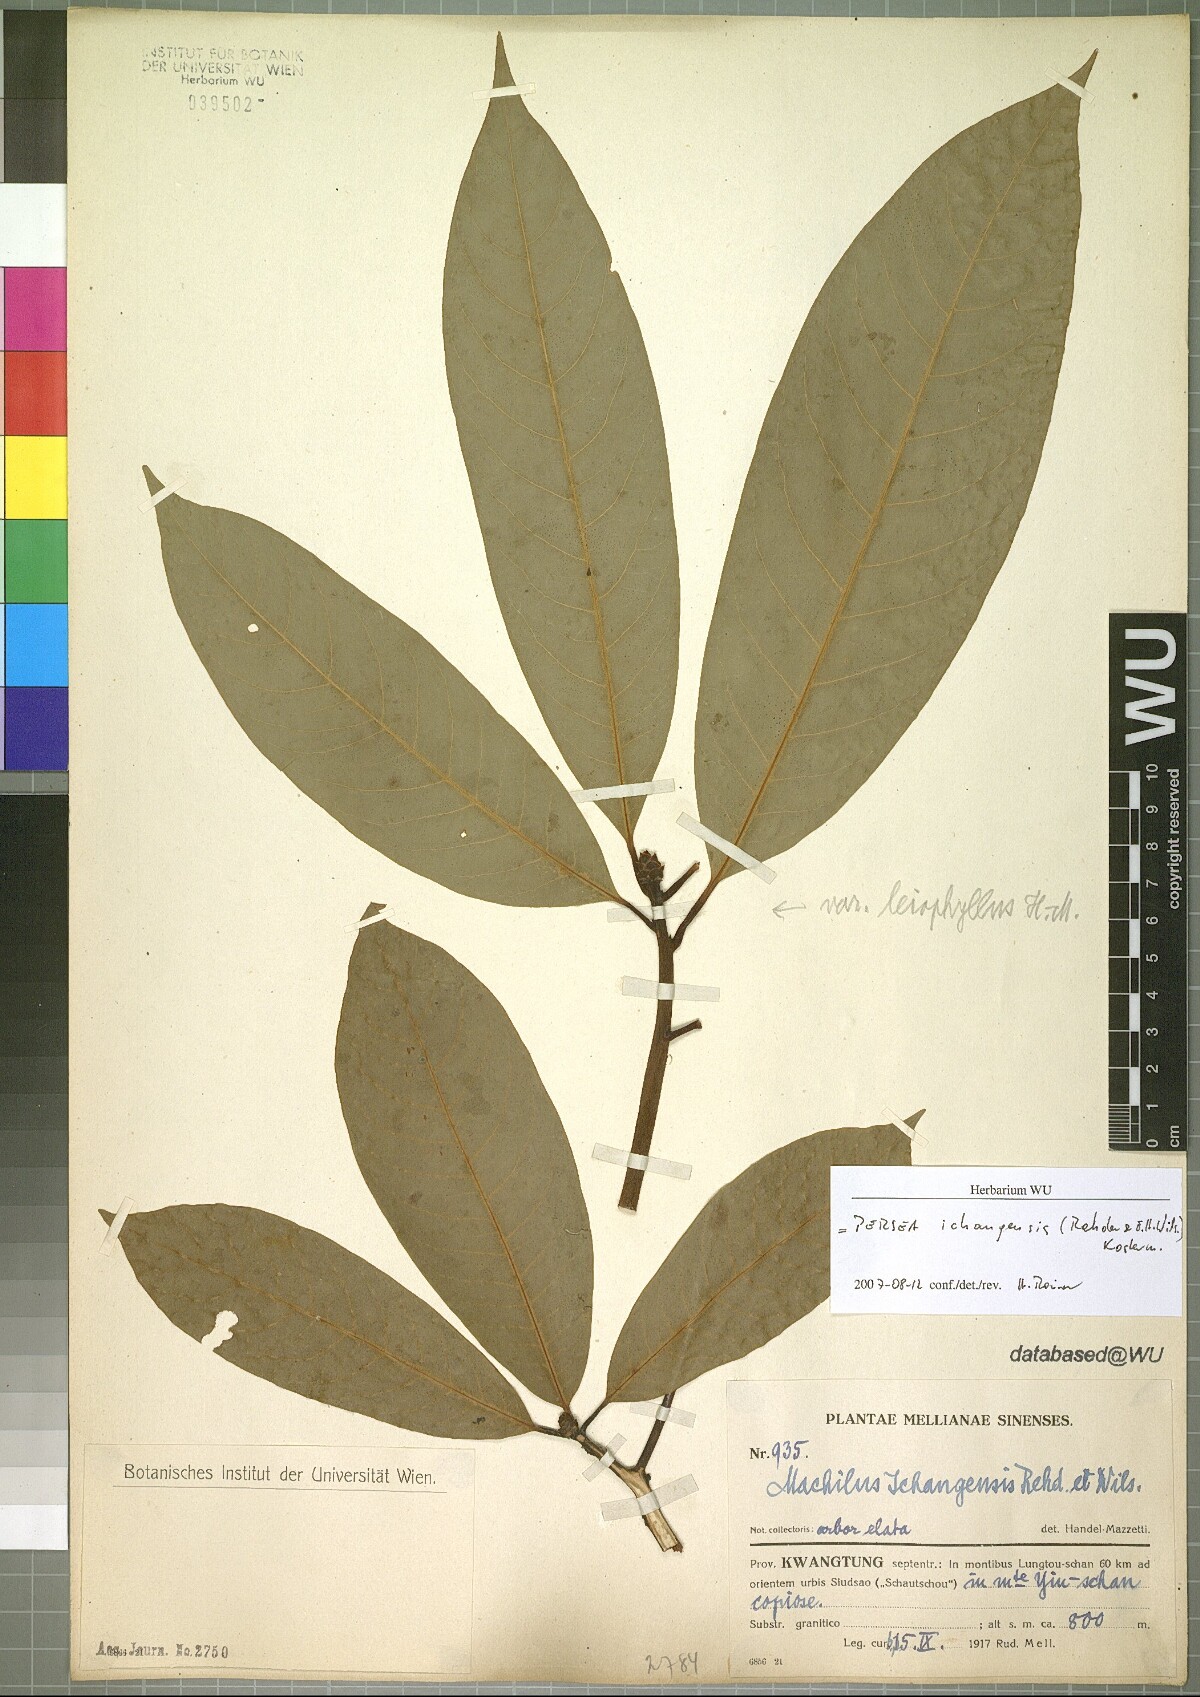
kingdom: Plantae
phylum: Tracheophyta
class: Magnoliopsida
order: Laurales
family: Lauraceae
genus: Machilus
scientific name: Machilus ichangensis
